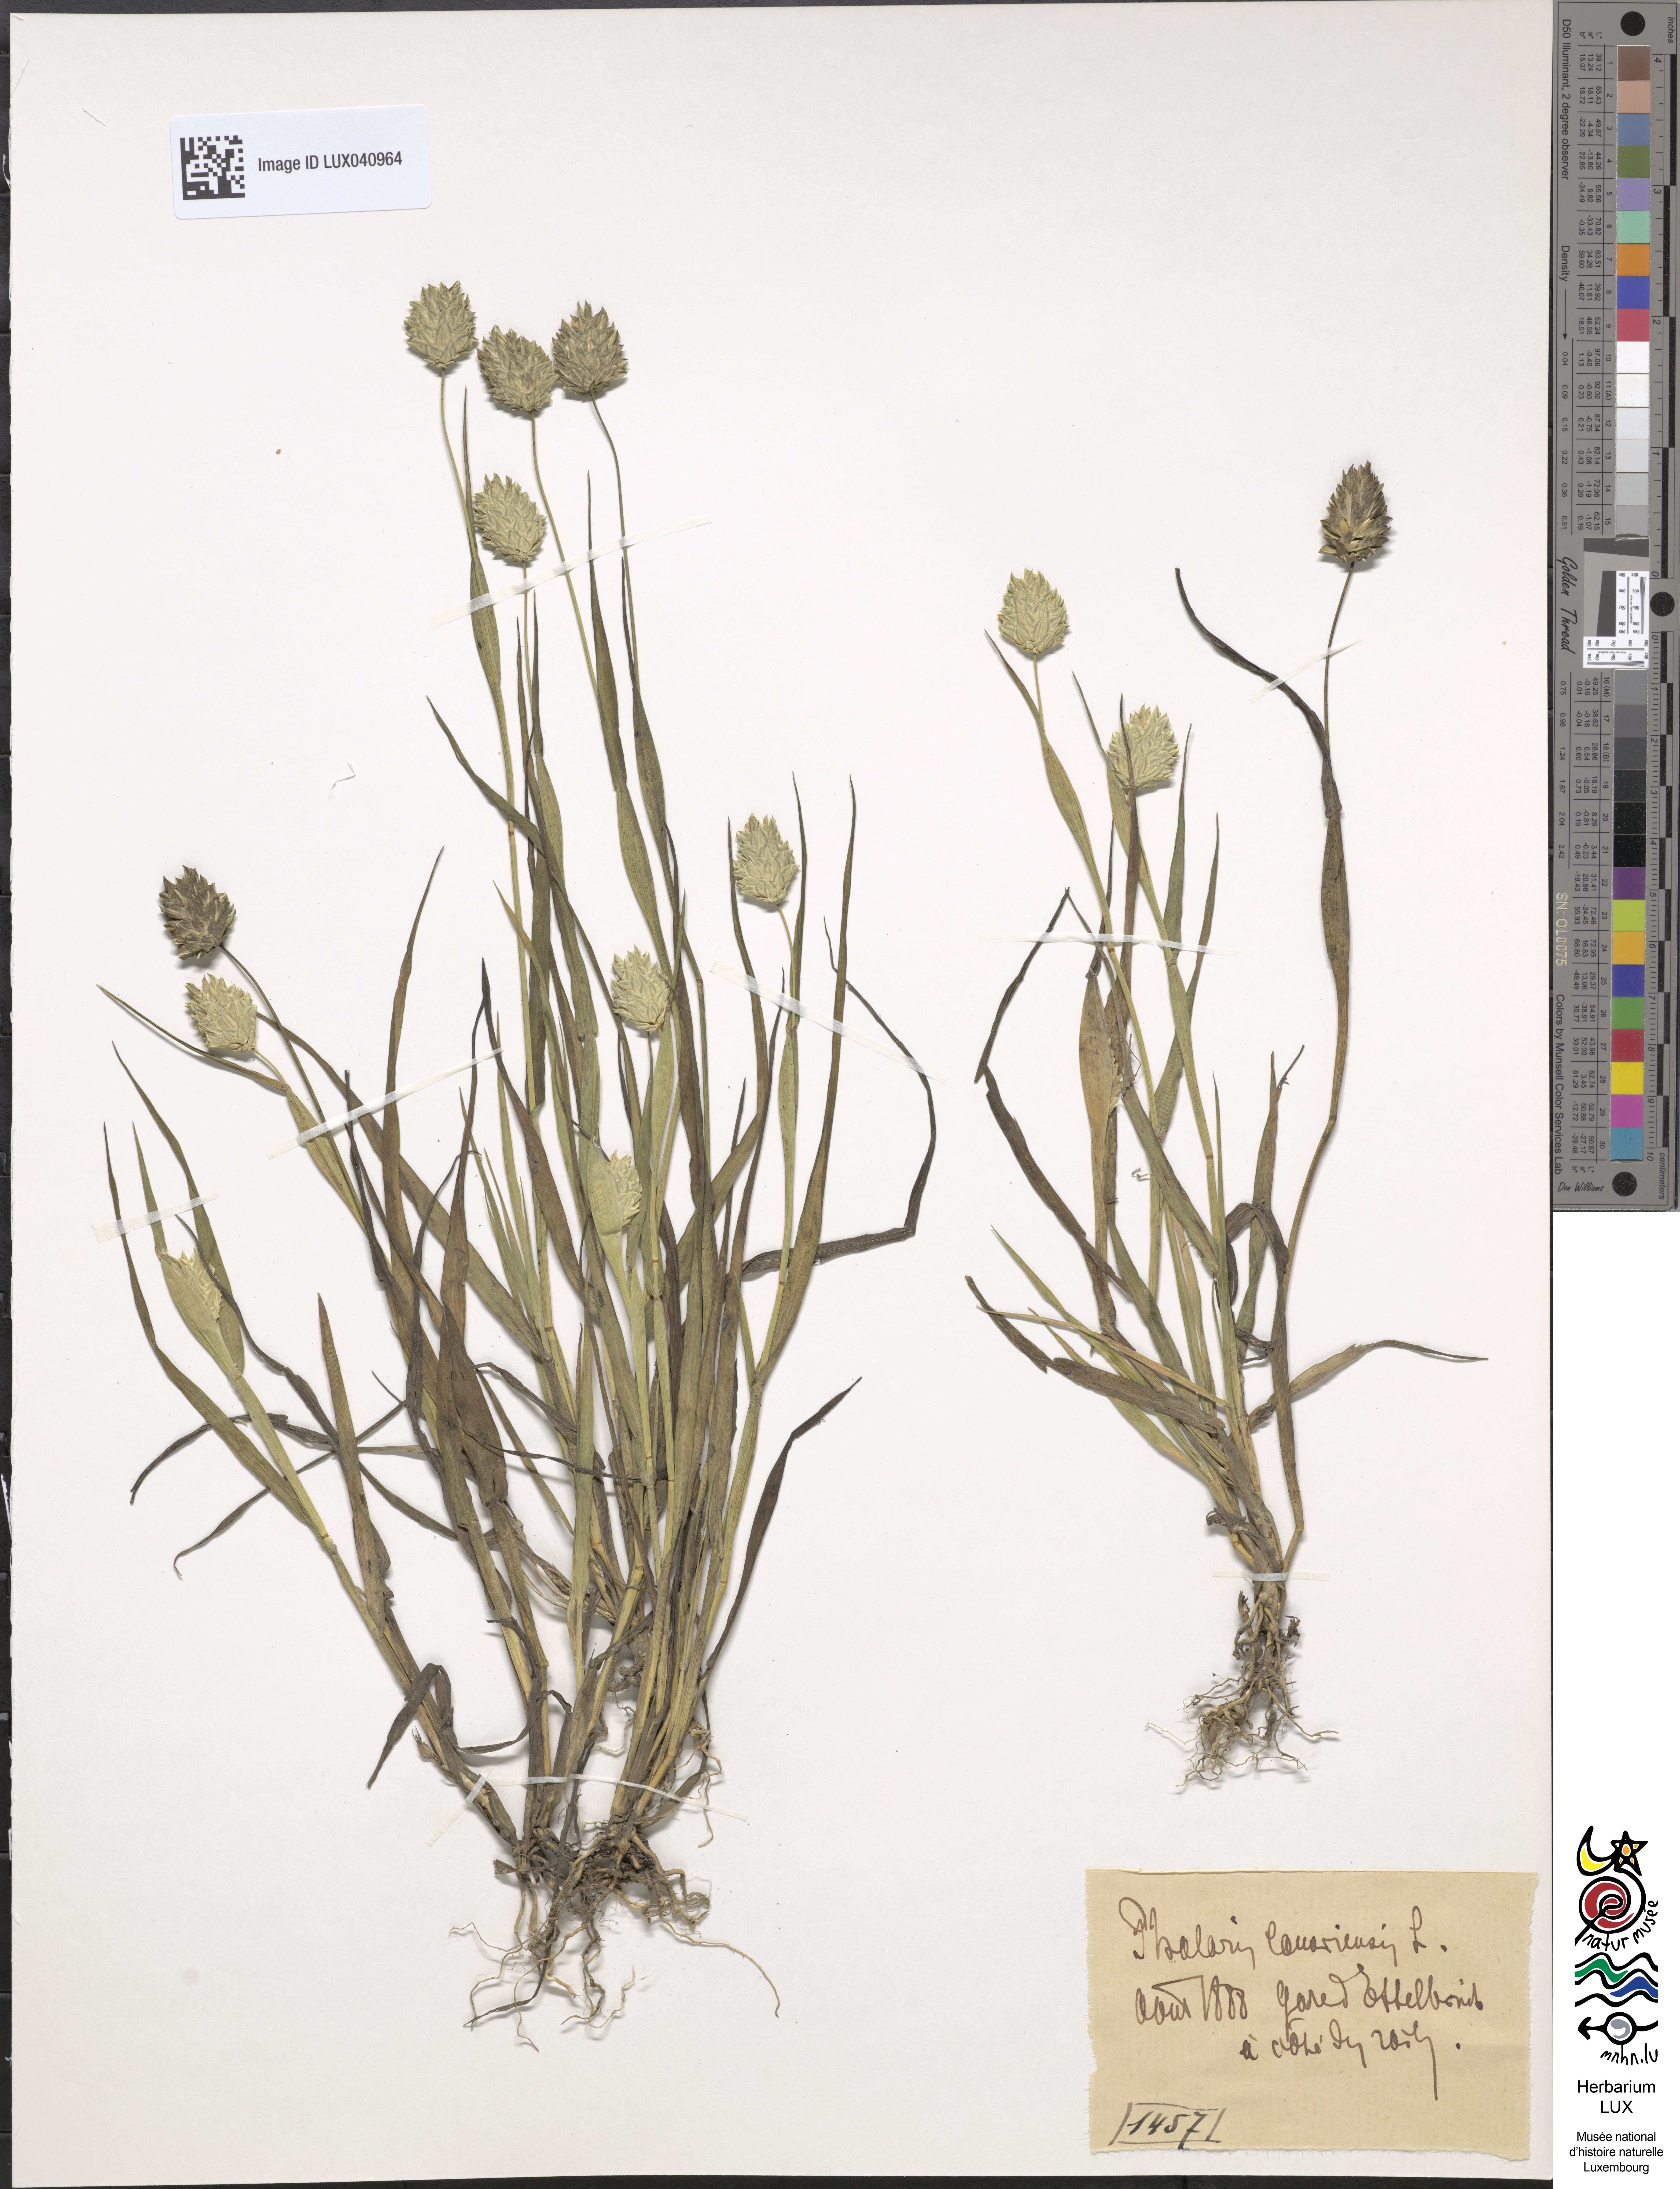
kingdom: Plantae
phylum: Tracheophyta
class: Liliopsida
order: Poales
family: Poaceae
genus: Phalaris
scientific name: Phalaris canariensis
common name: Annual canarygrass
